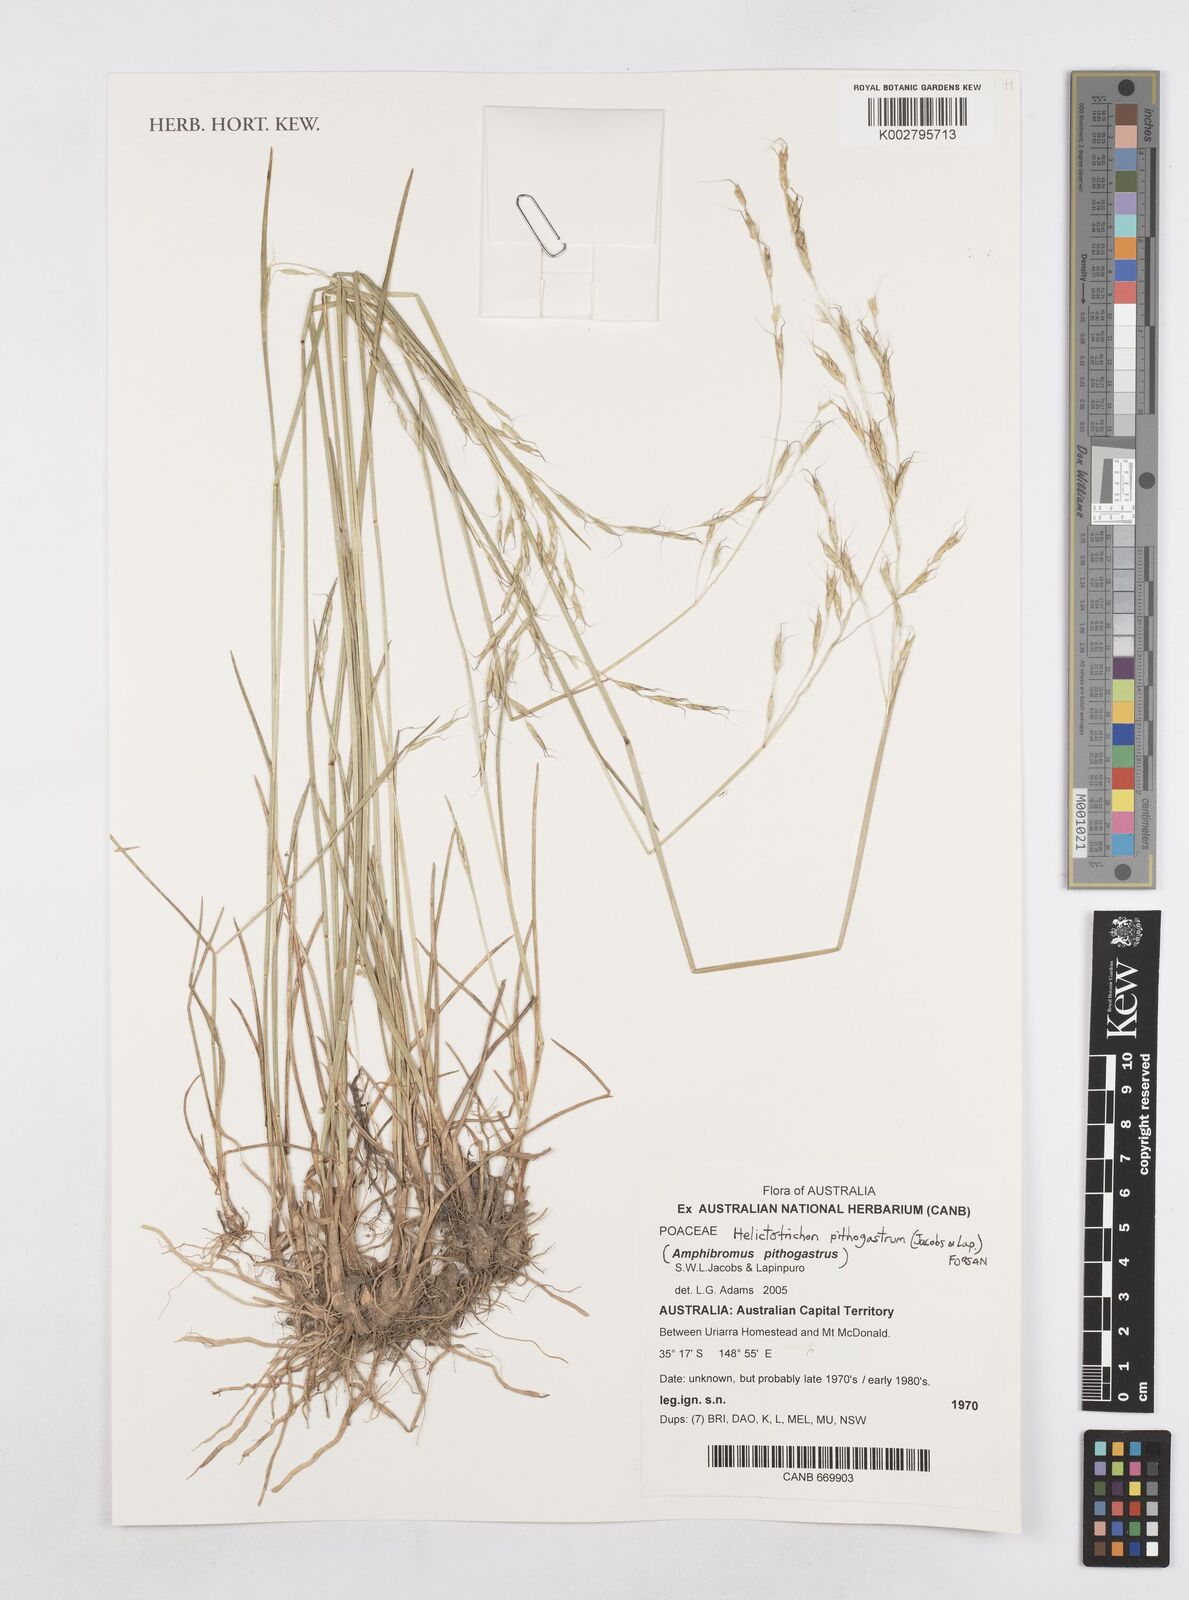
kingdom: Plantae
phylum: Tracheophyta
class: Liliopsida
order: Poales
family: Poaceae
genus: Helictotrichon
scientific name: Helictotrichon
